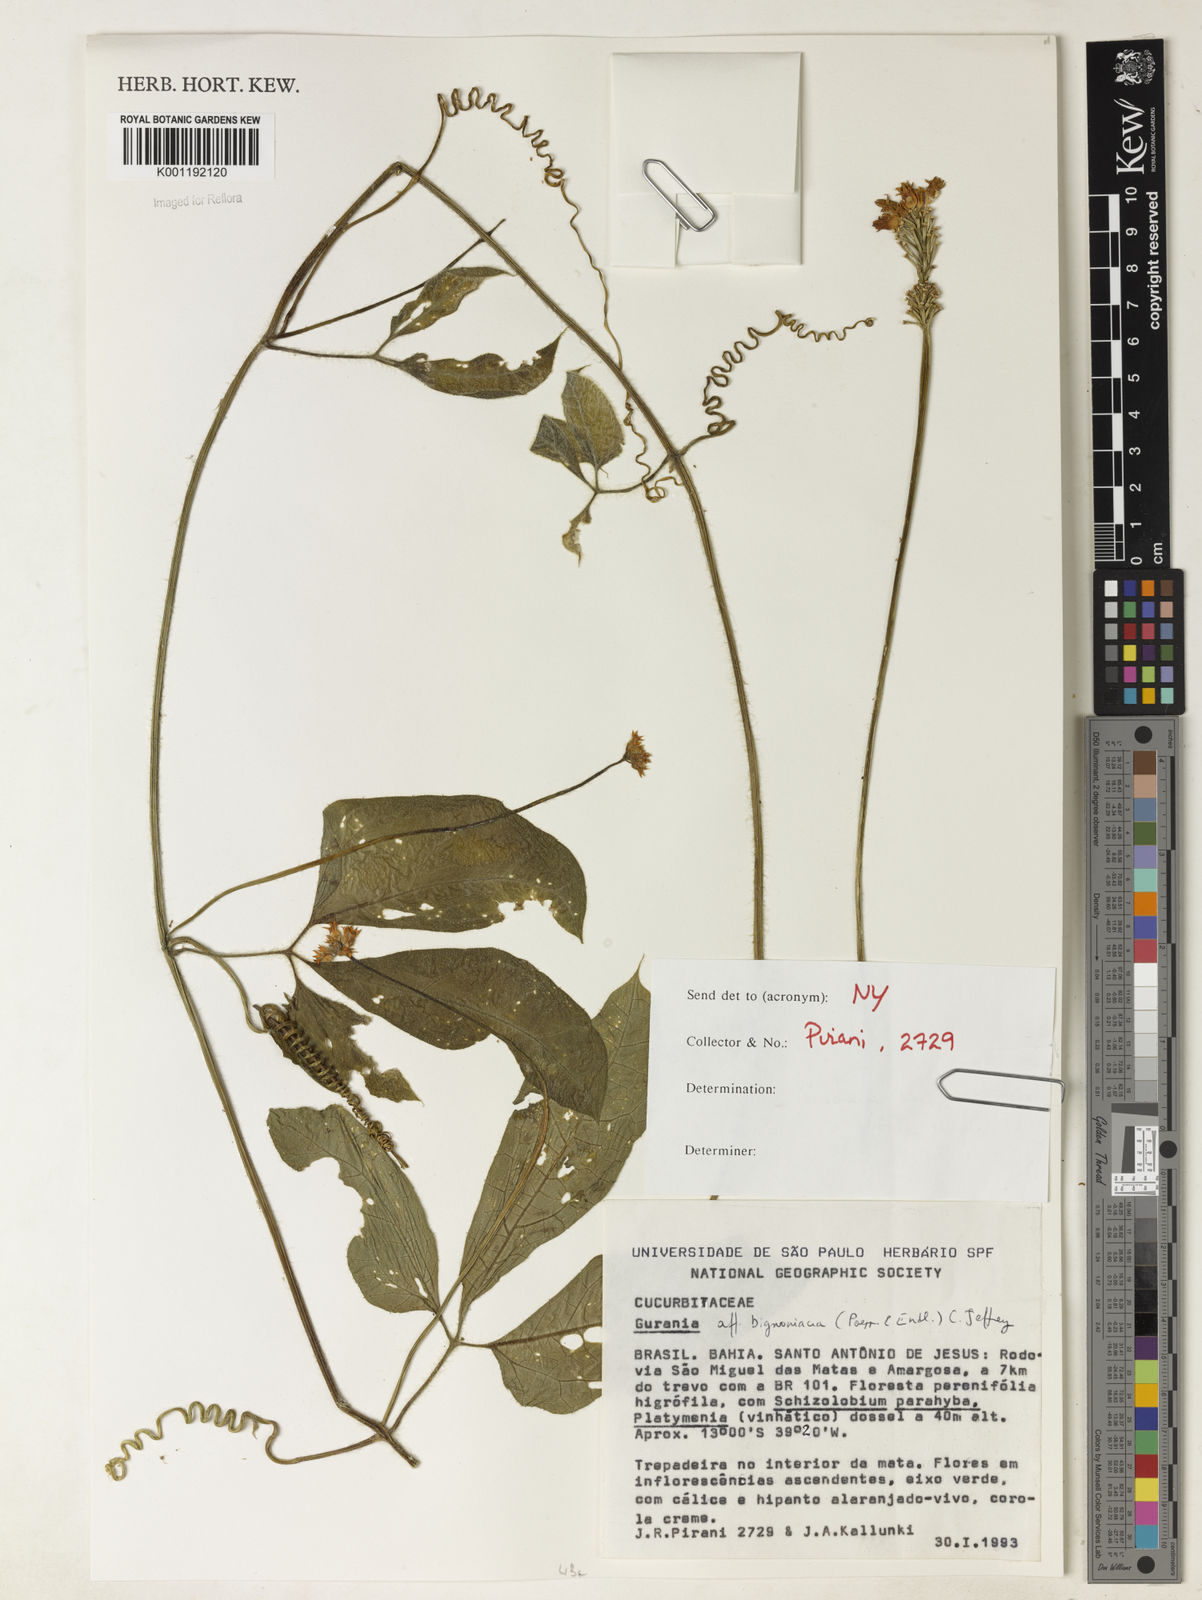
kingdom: Plantae
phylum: Tracheophyta
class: Magnoliopsida
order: Cucurbitales
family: Cucurbitaceae
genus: Gurania
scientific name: Gurania bignoniacea
